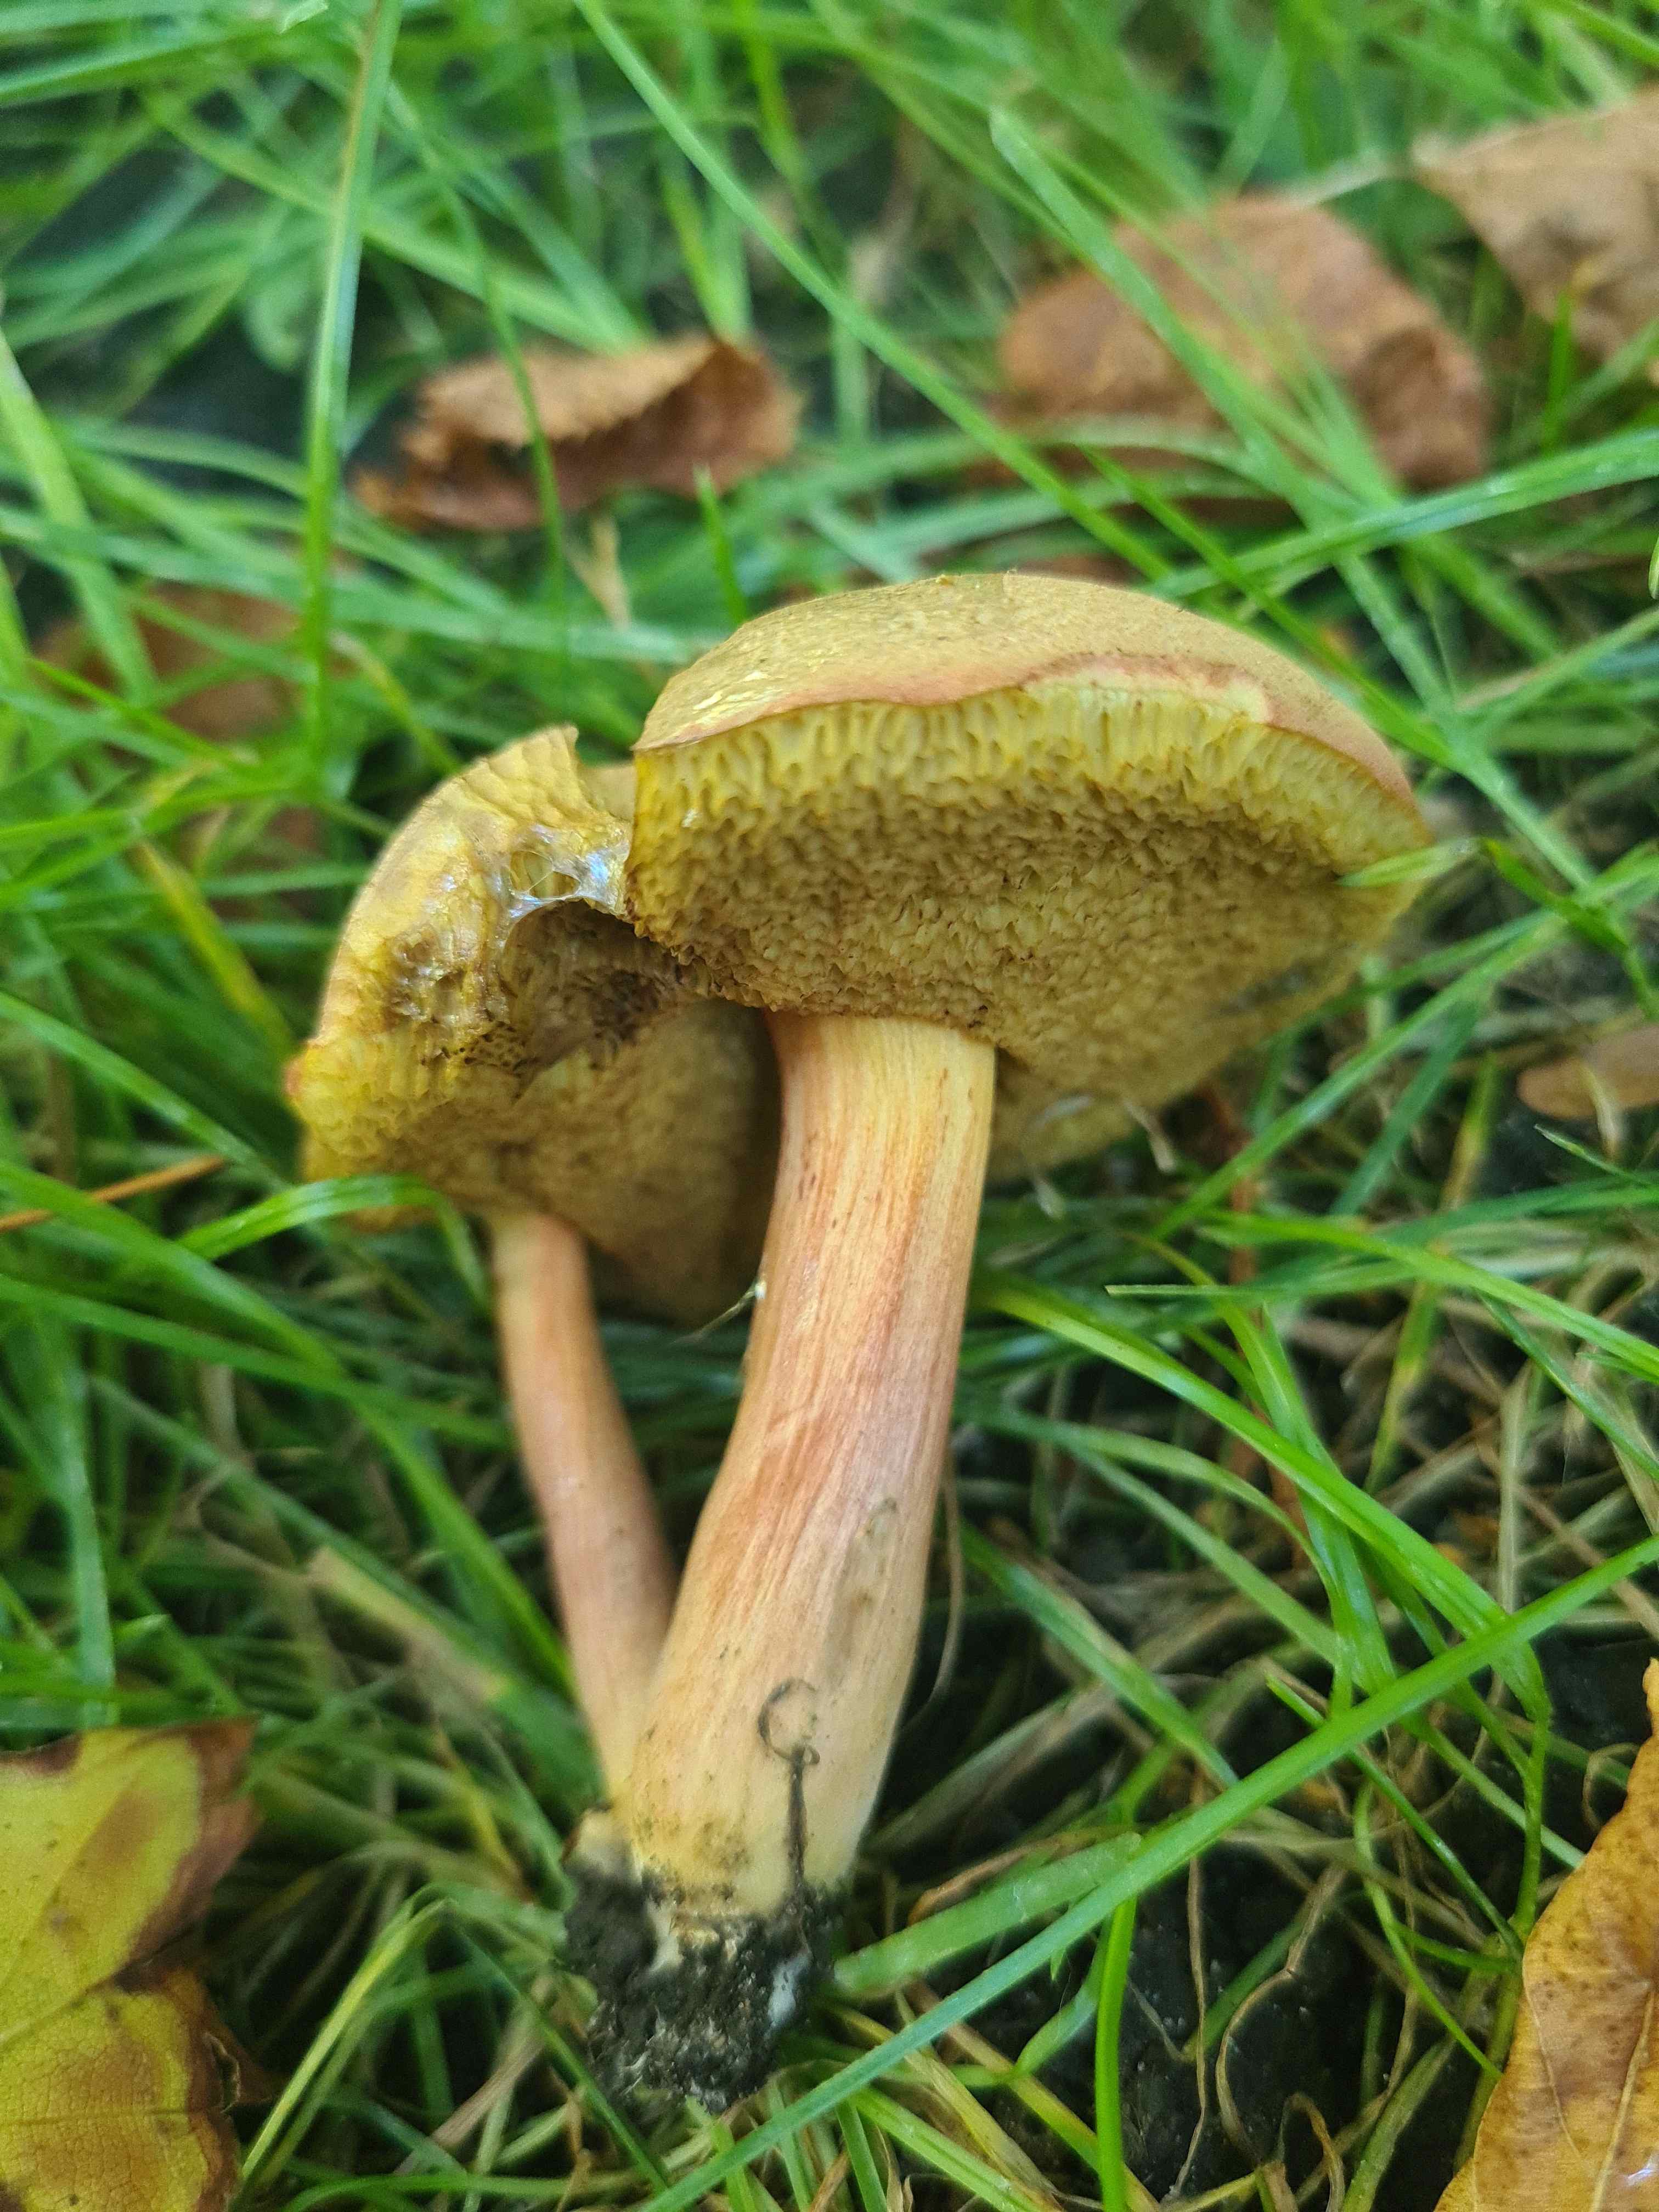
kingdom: Fungi
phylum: Basidiomycota
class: Agaricomycetes
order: Boletales
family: Boletaceae
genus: Hortiboletus
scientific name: Hortiboletus bubalinus
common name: aurora-rørhat
